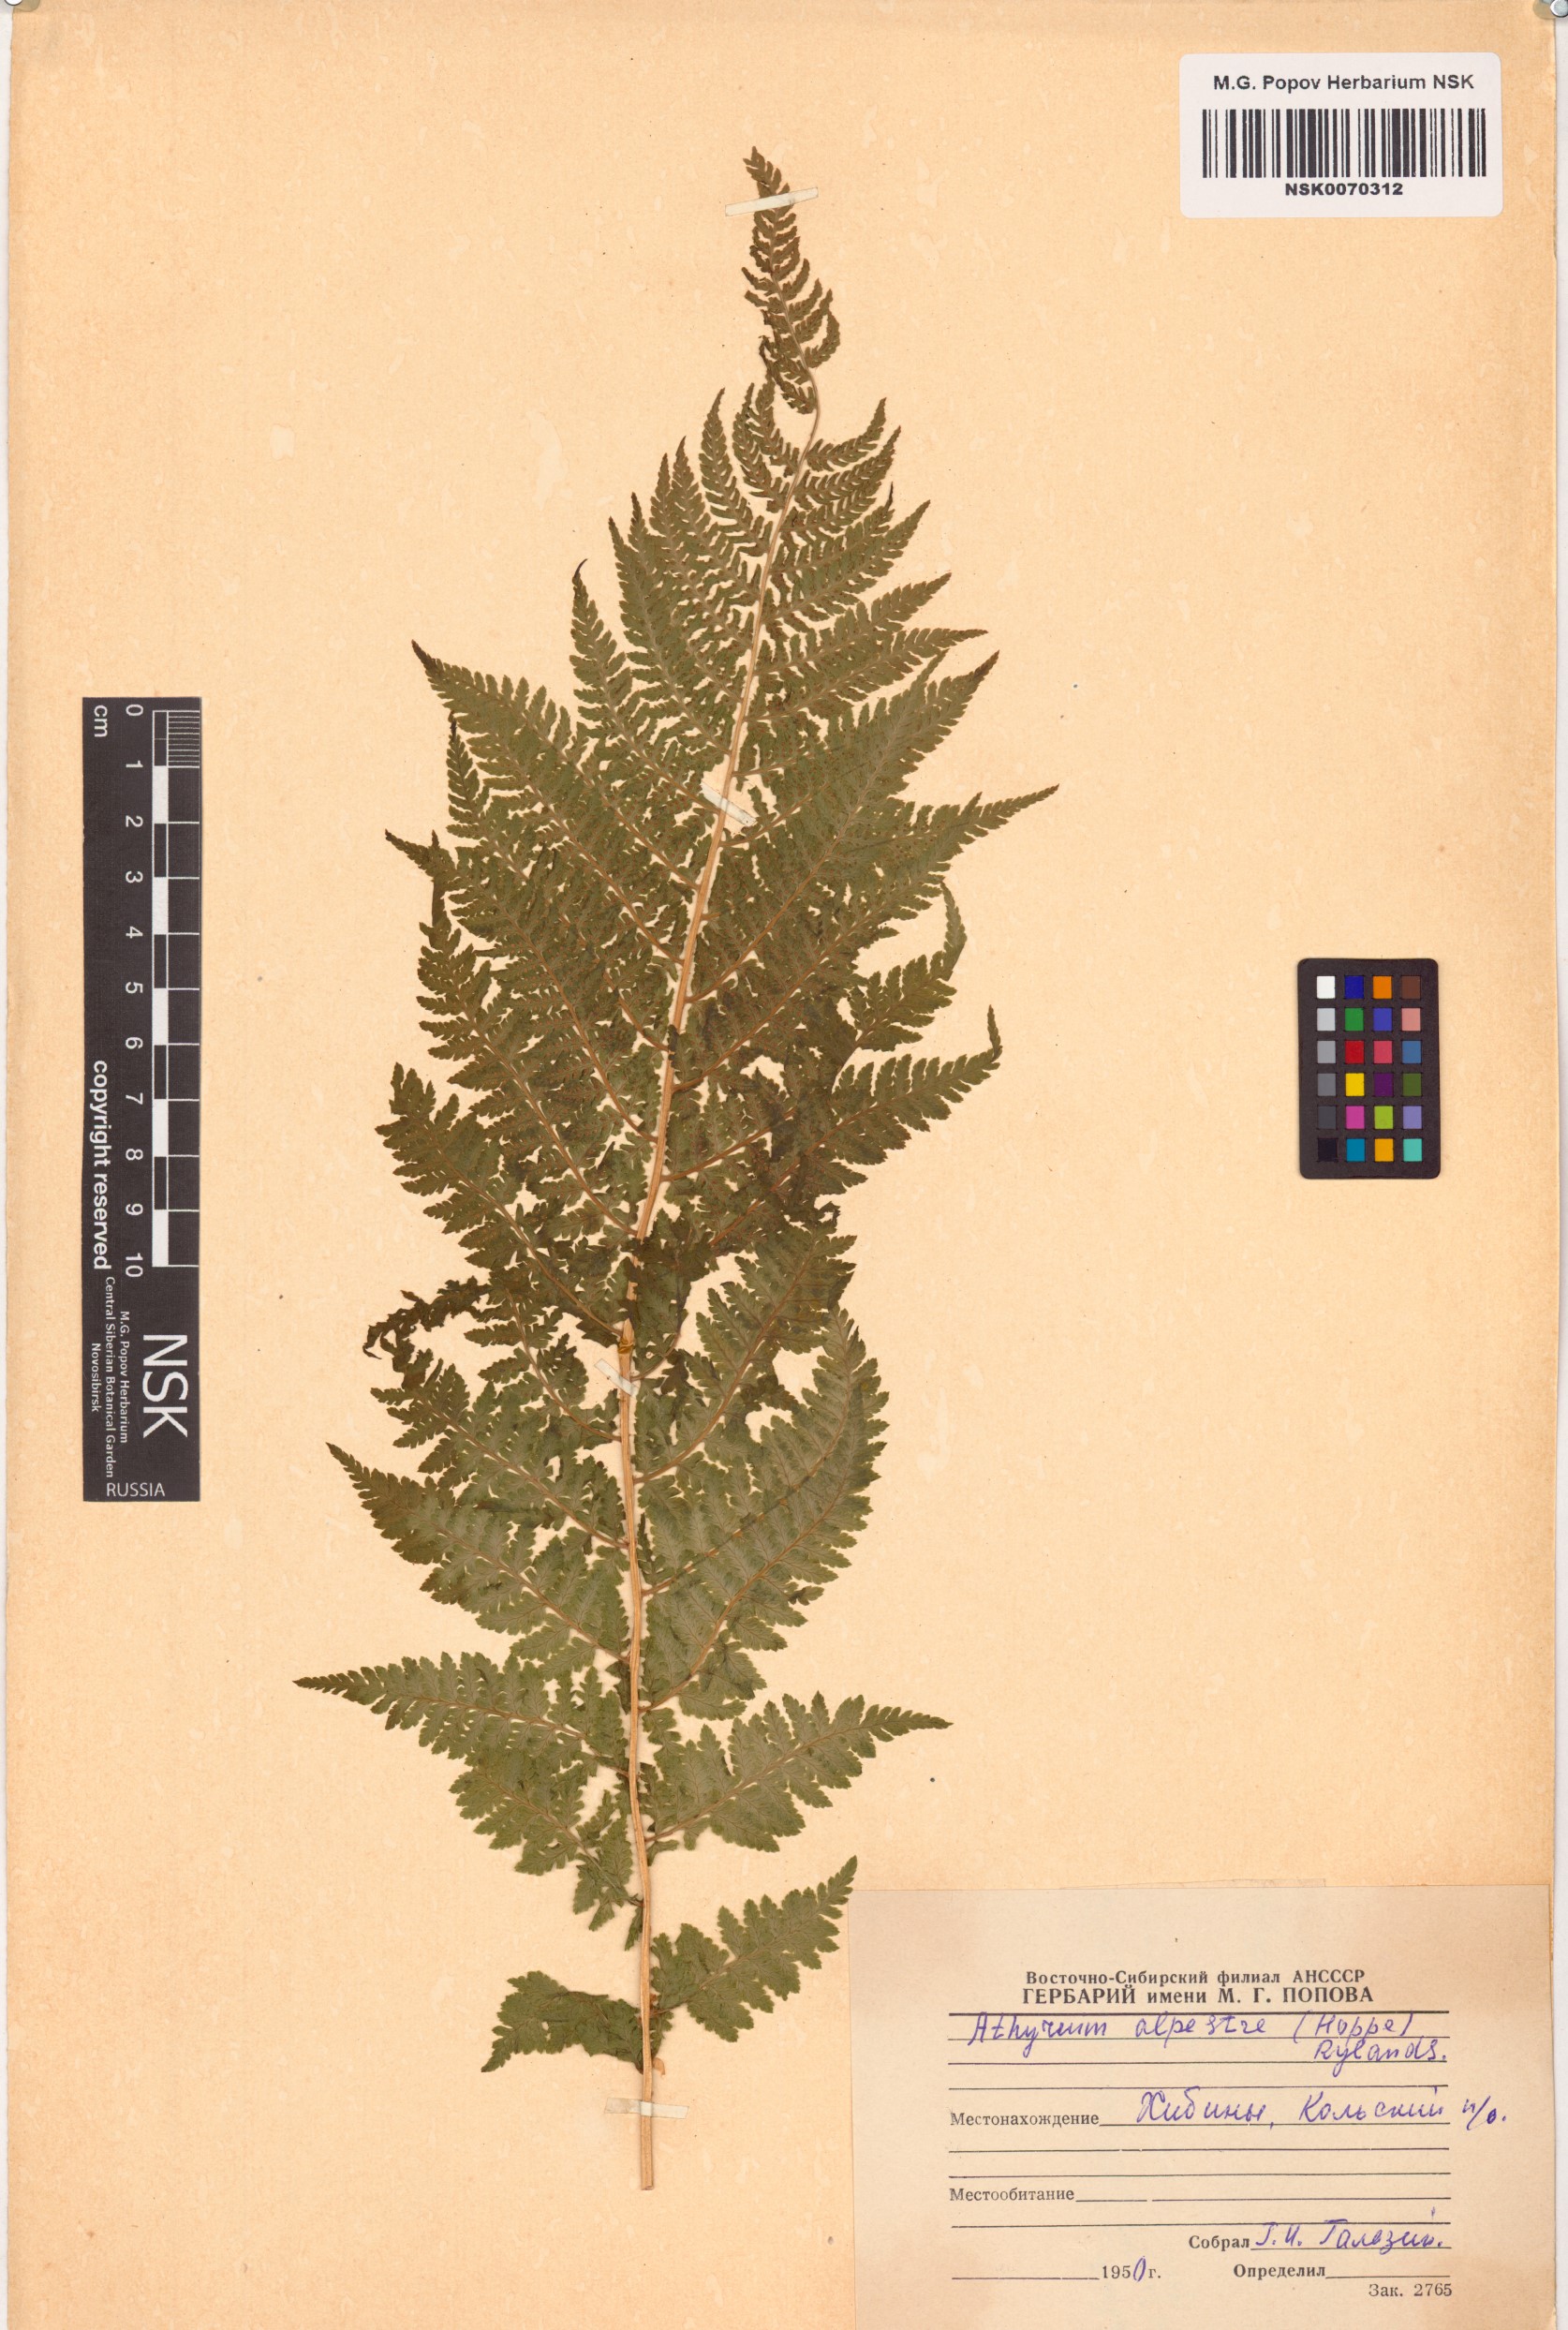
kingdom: Plantae
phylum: Tracheophyta
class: Polypodiopsida
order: Polypodiales
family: Athyriaceae
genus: Pseudathyrium
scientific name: Pseudathyrium alpestre
